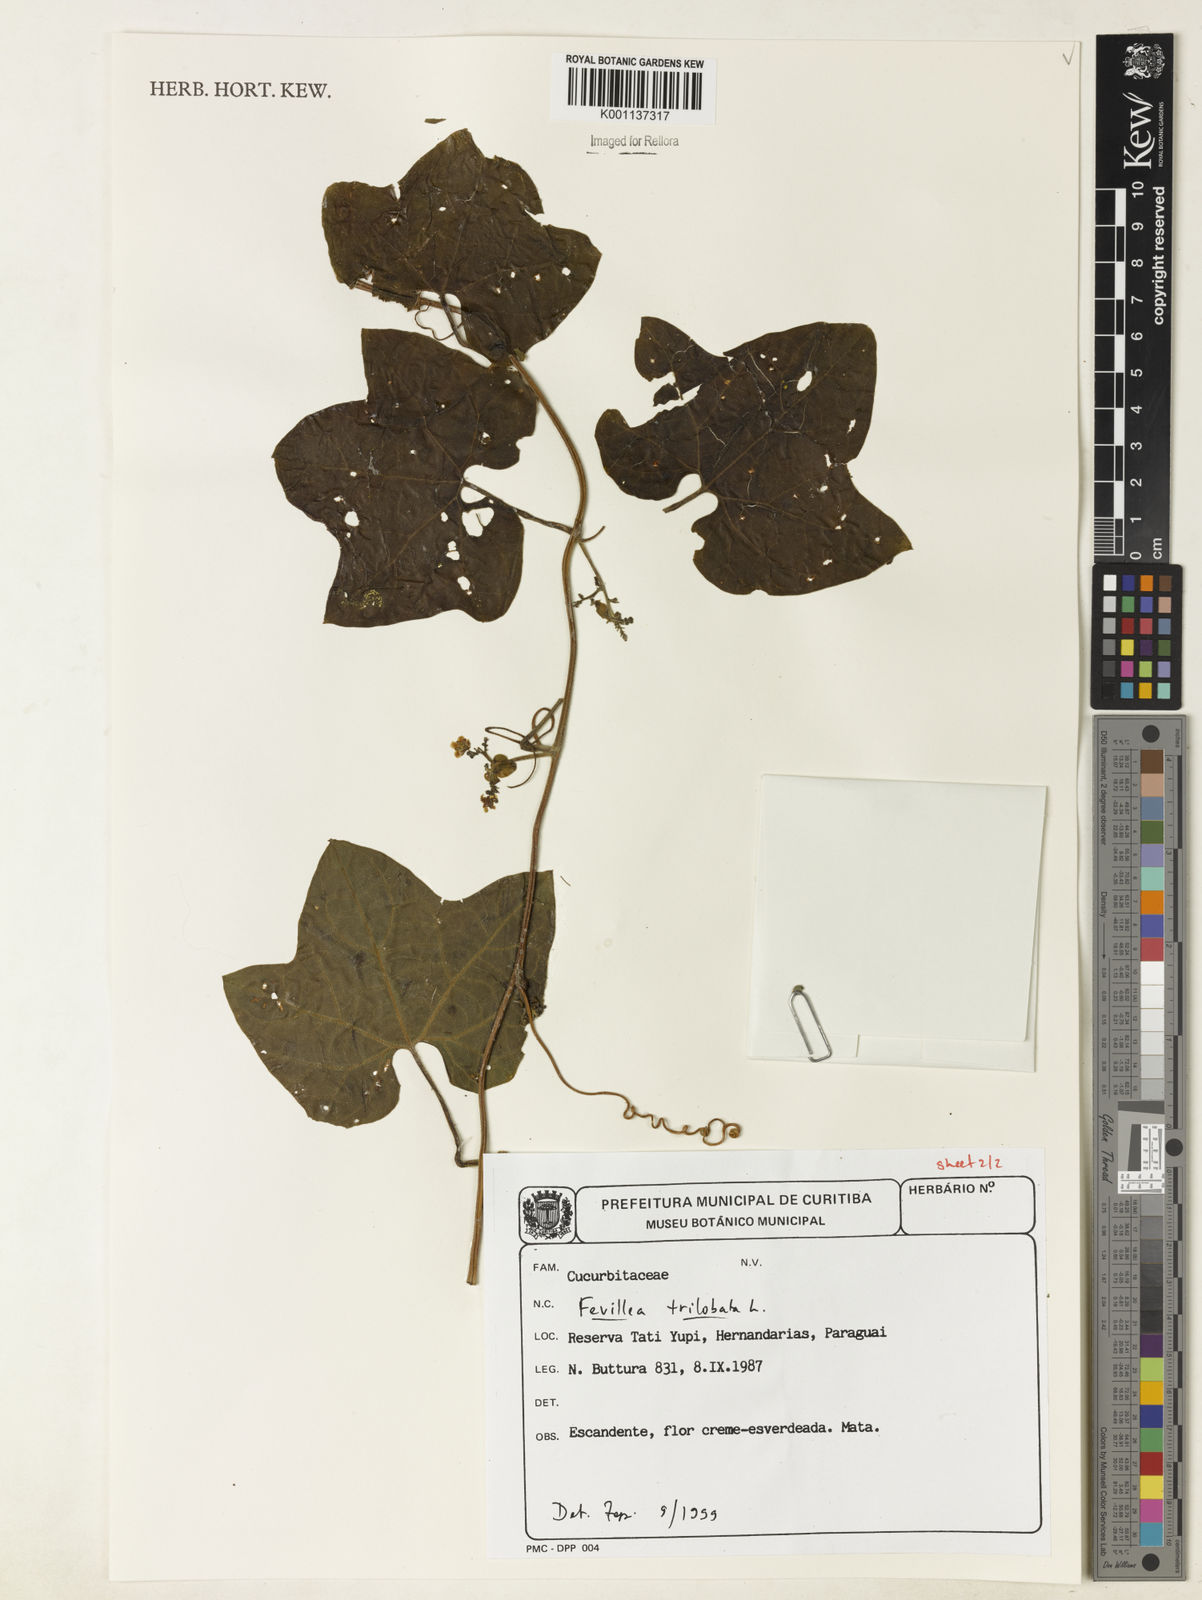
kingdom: Plantae
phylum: Tracheophyta
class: Magnoliopsida
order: Cucurbitales
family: Cucurbitaceae
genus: Fevillea
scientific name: Fevillea trilobata
